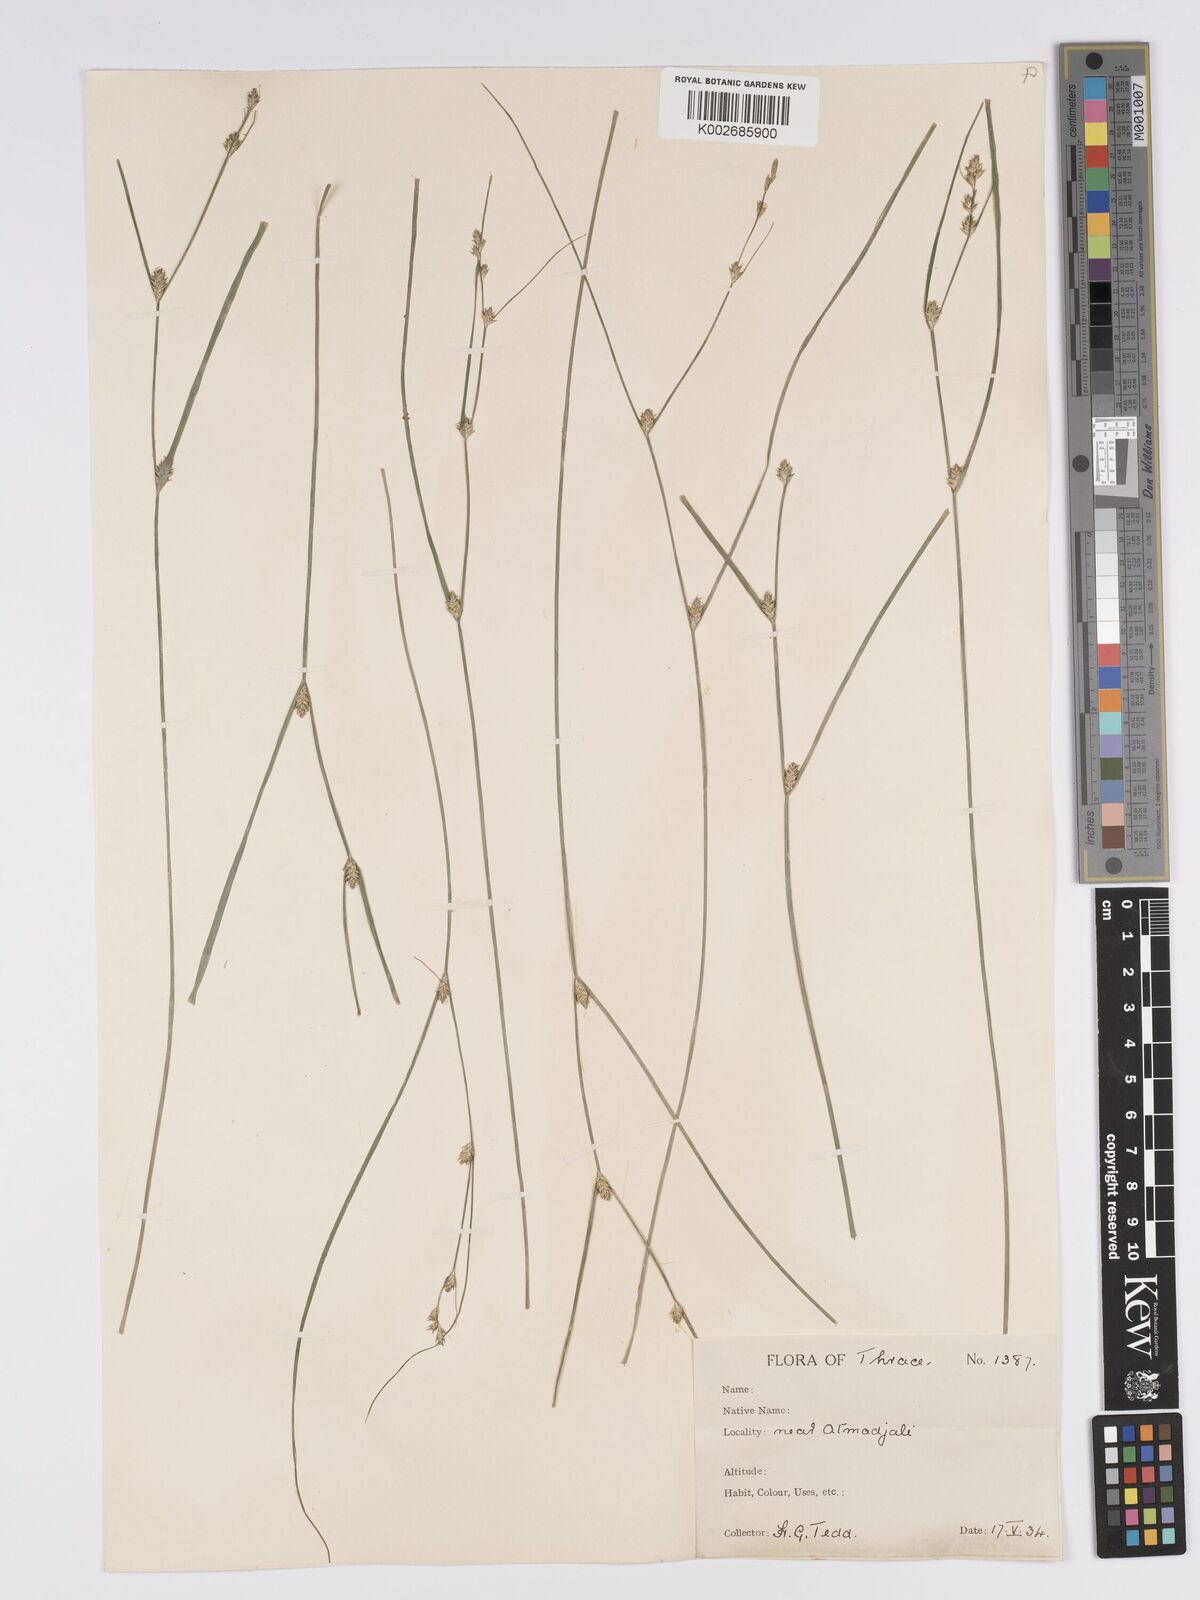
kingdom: Plantae
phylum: Tracheophyta
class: Liliopsida
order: Poales
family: Cyperaceae
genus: Carex
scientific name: Carex remota
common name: Remote sedge
